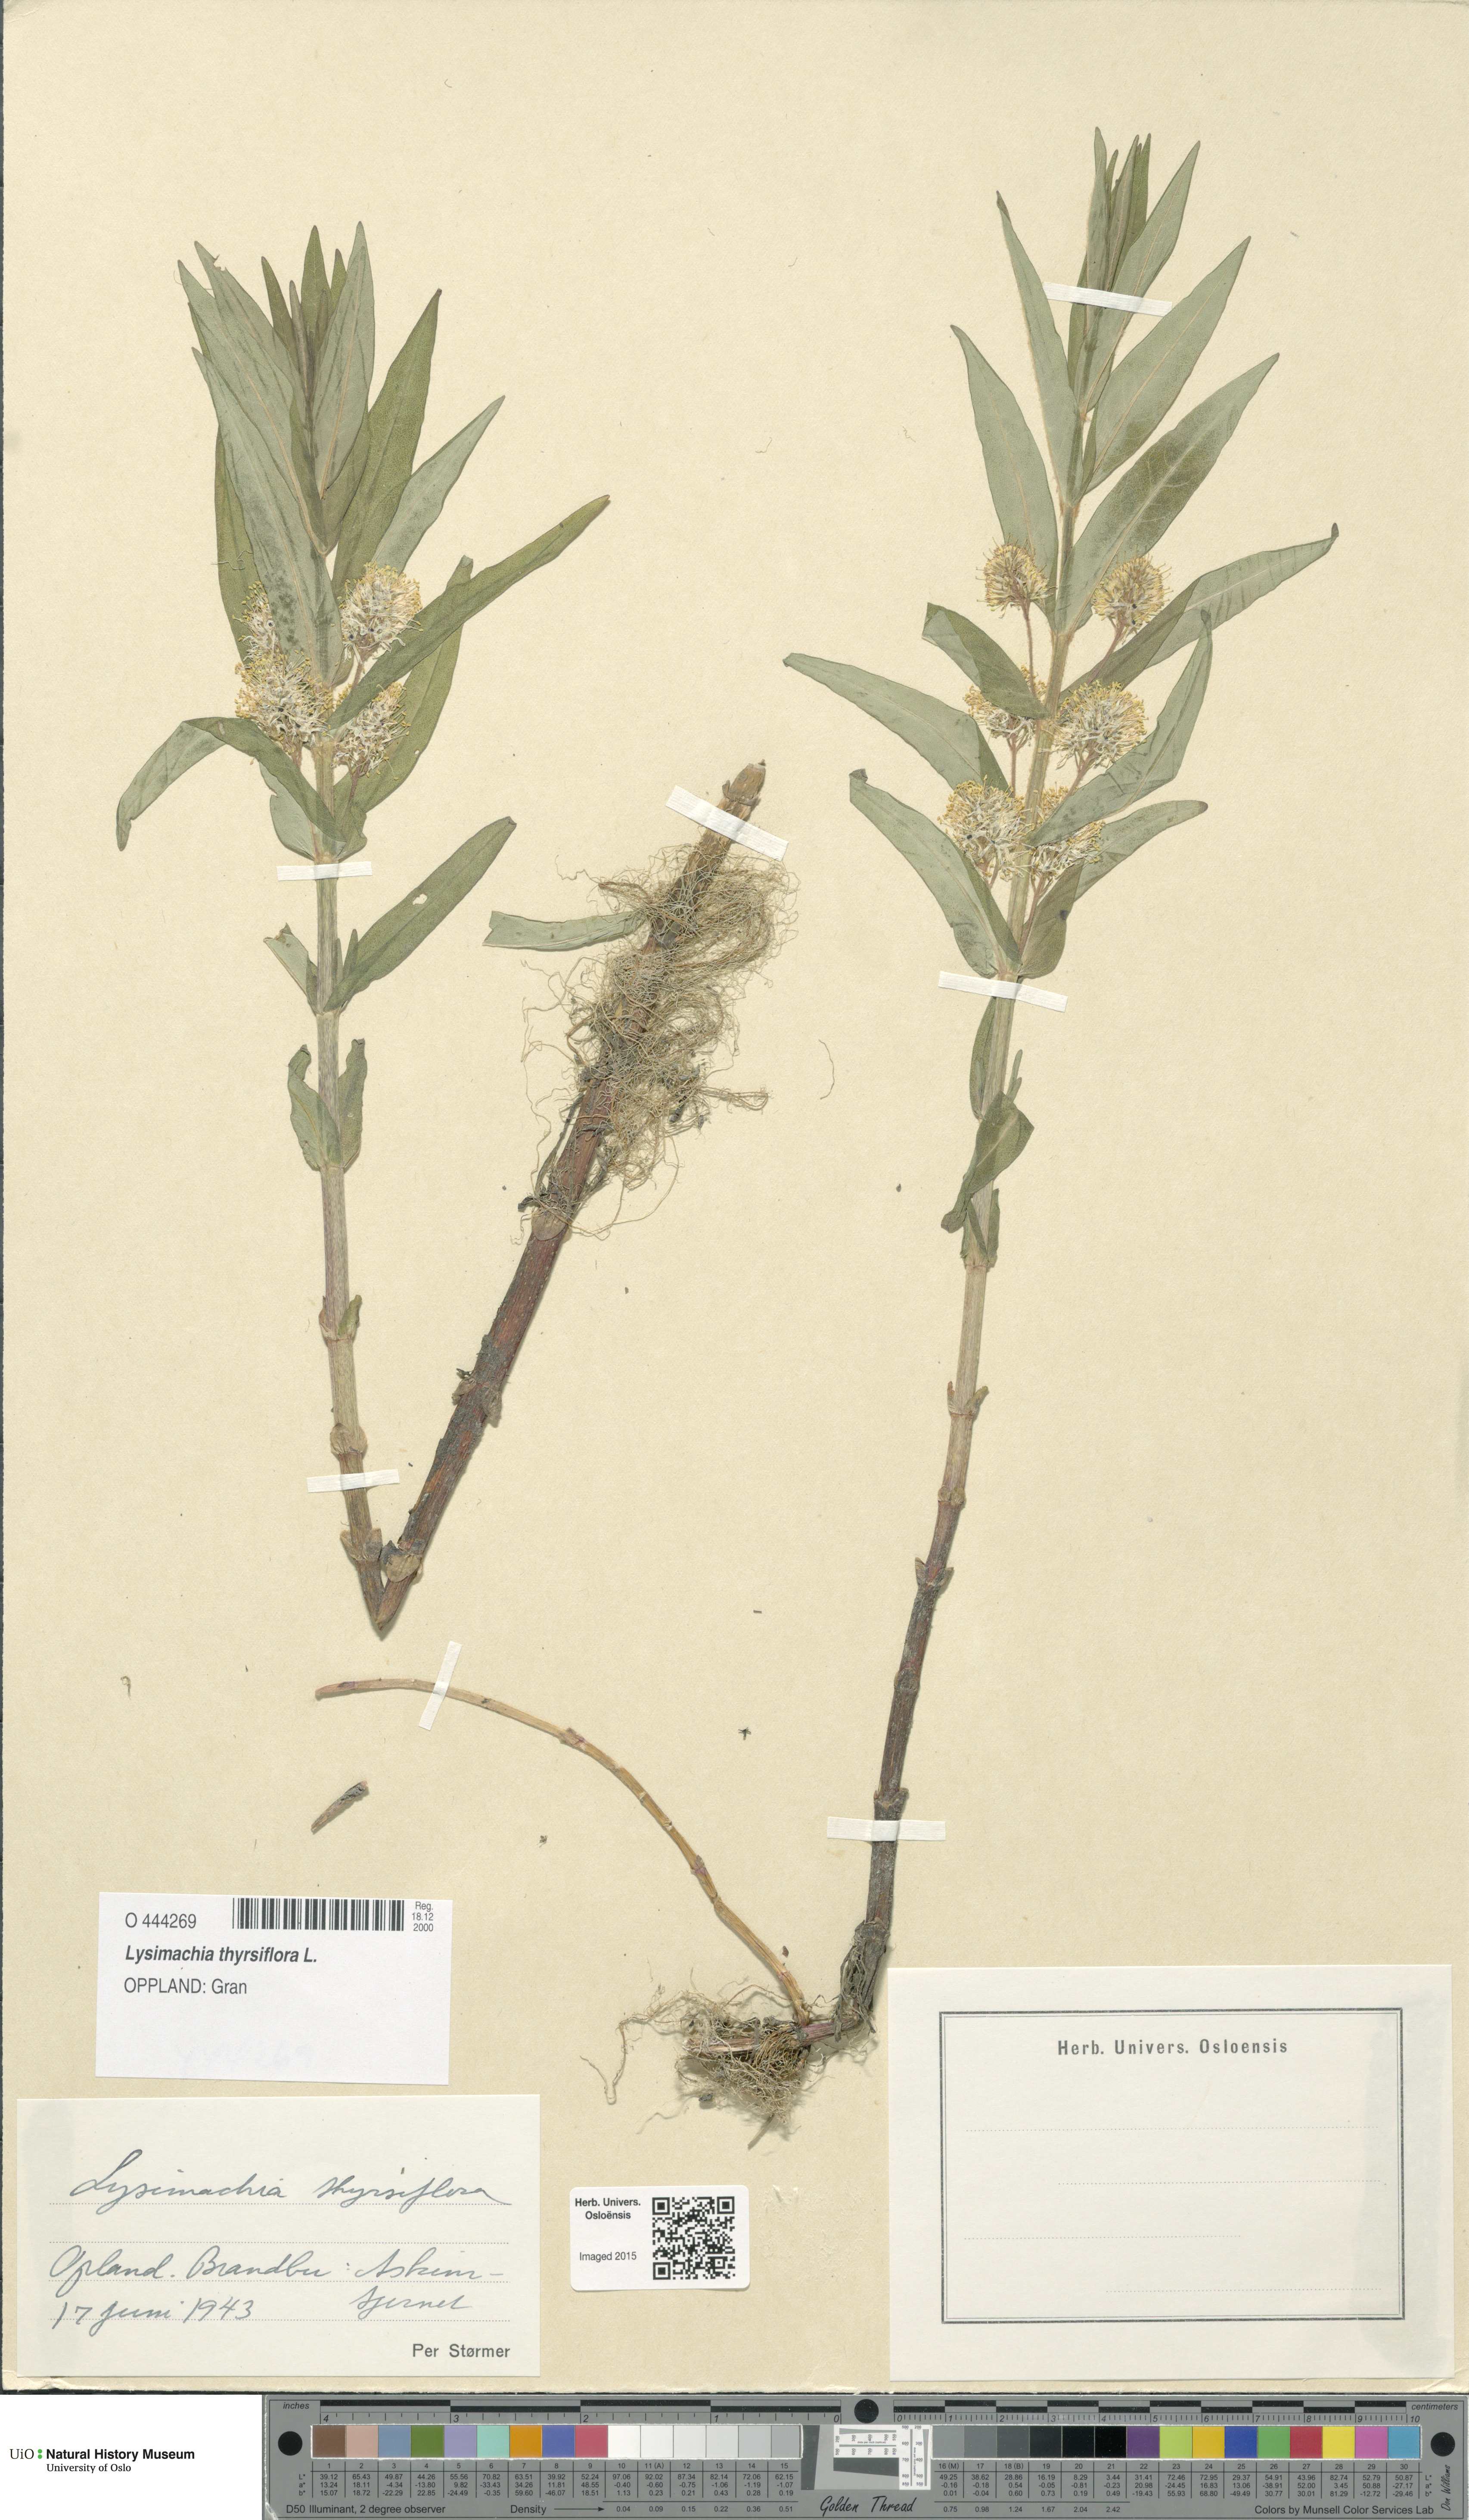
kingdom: Plantae
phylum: Tracheophyta
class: Magnoliopsida
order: Ericales
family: Primulaceae
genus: Lysimachia
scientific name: Lysimachia thyrsiflora
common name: Tufted loosestrife
